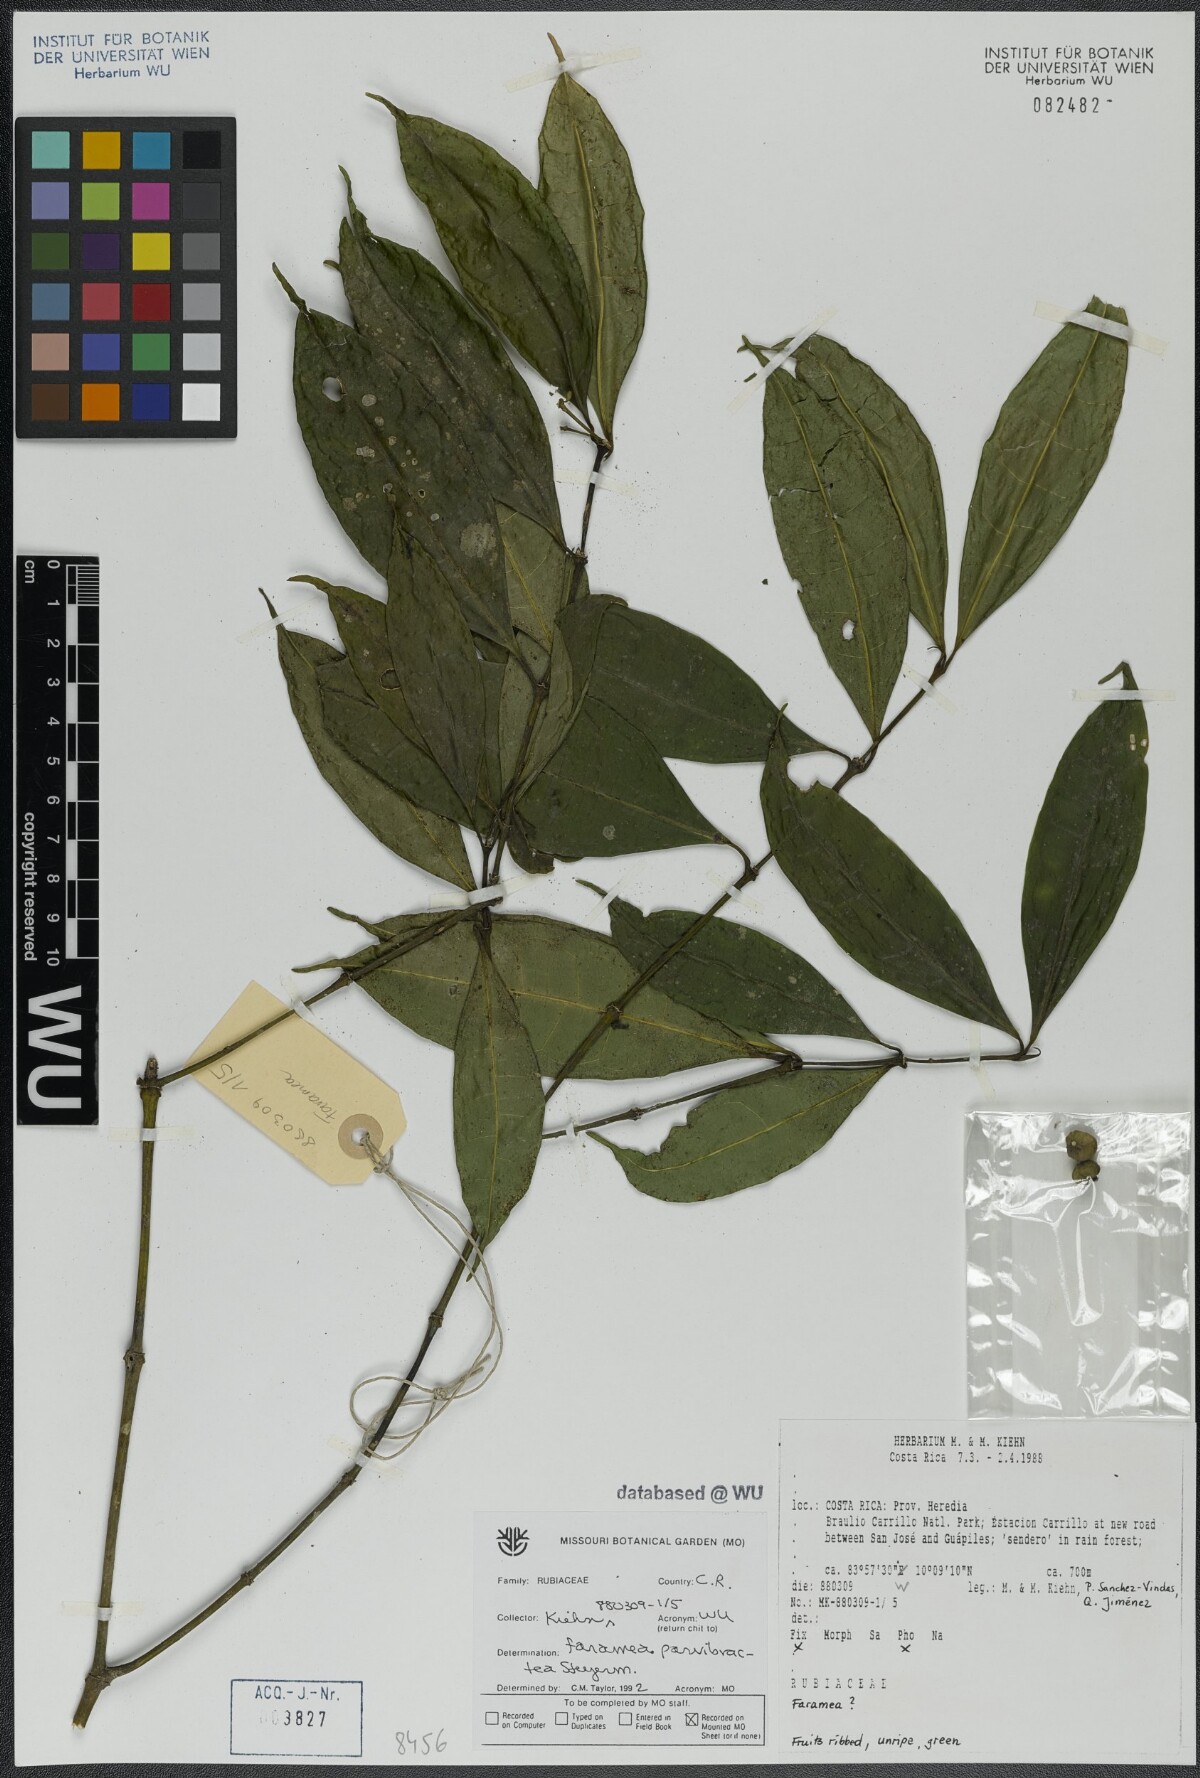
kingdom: Plantae
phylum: Tracheophyta
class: Magnoliopsida
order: Gentianales
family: Rubiaceae
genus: Faramea
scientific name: Faramea parvibractea
